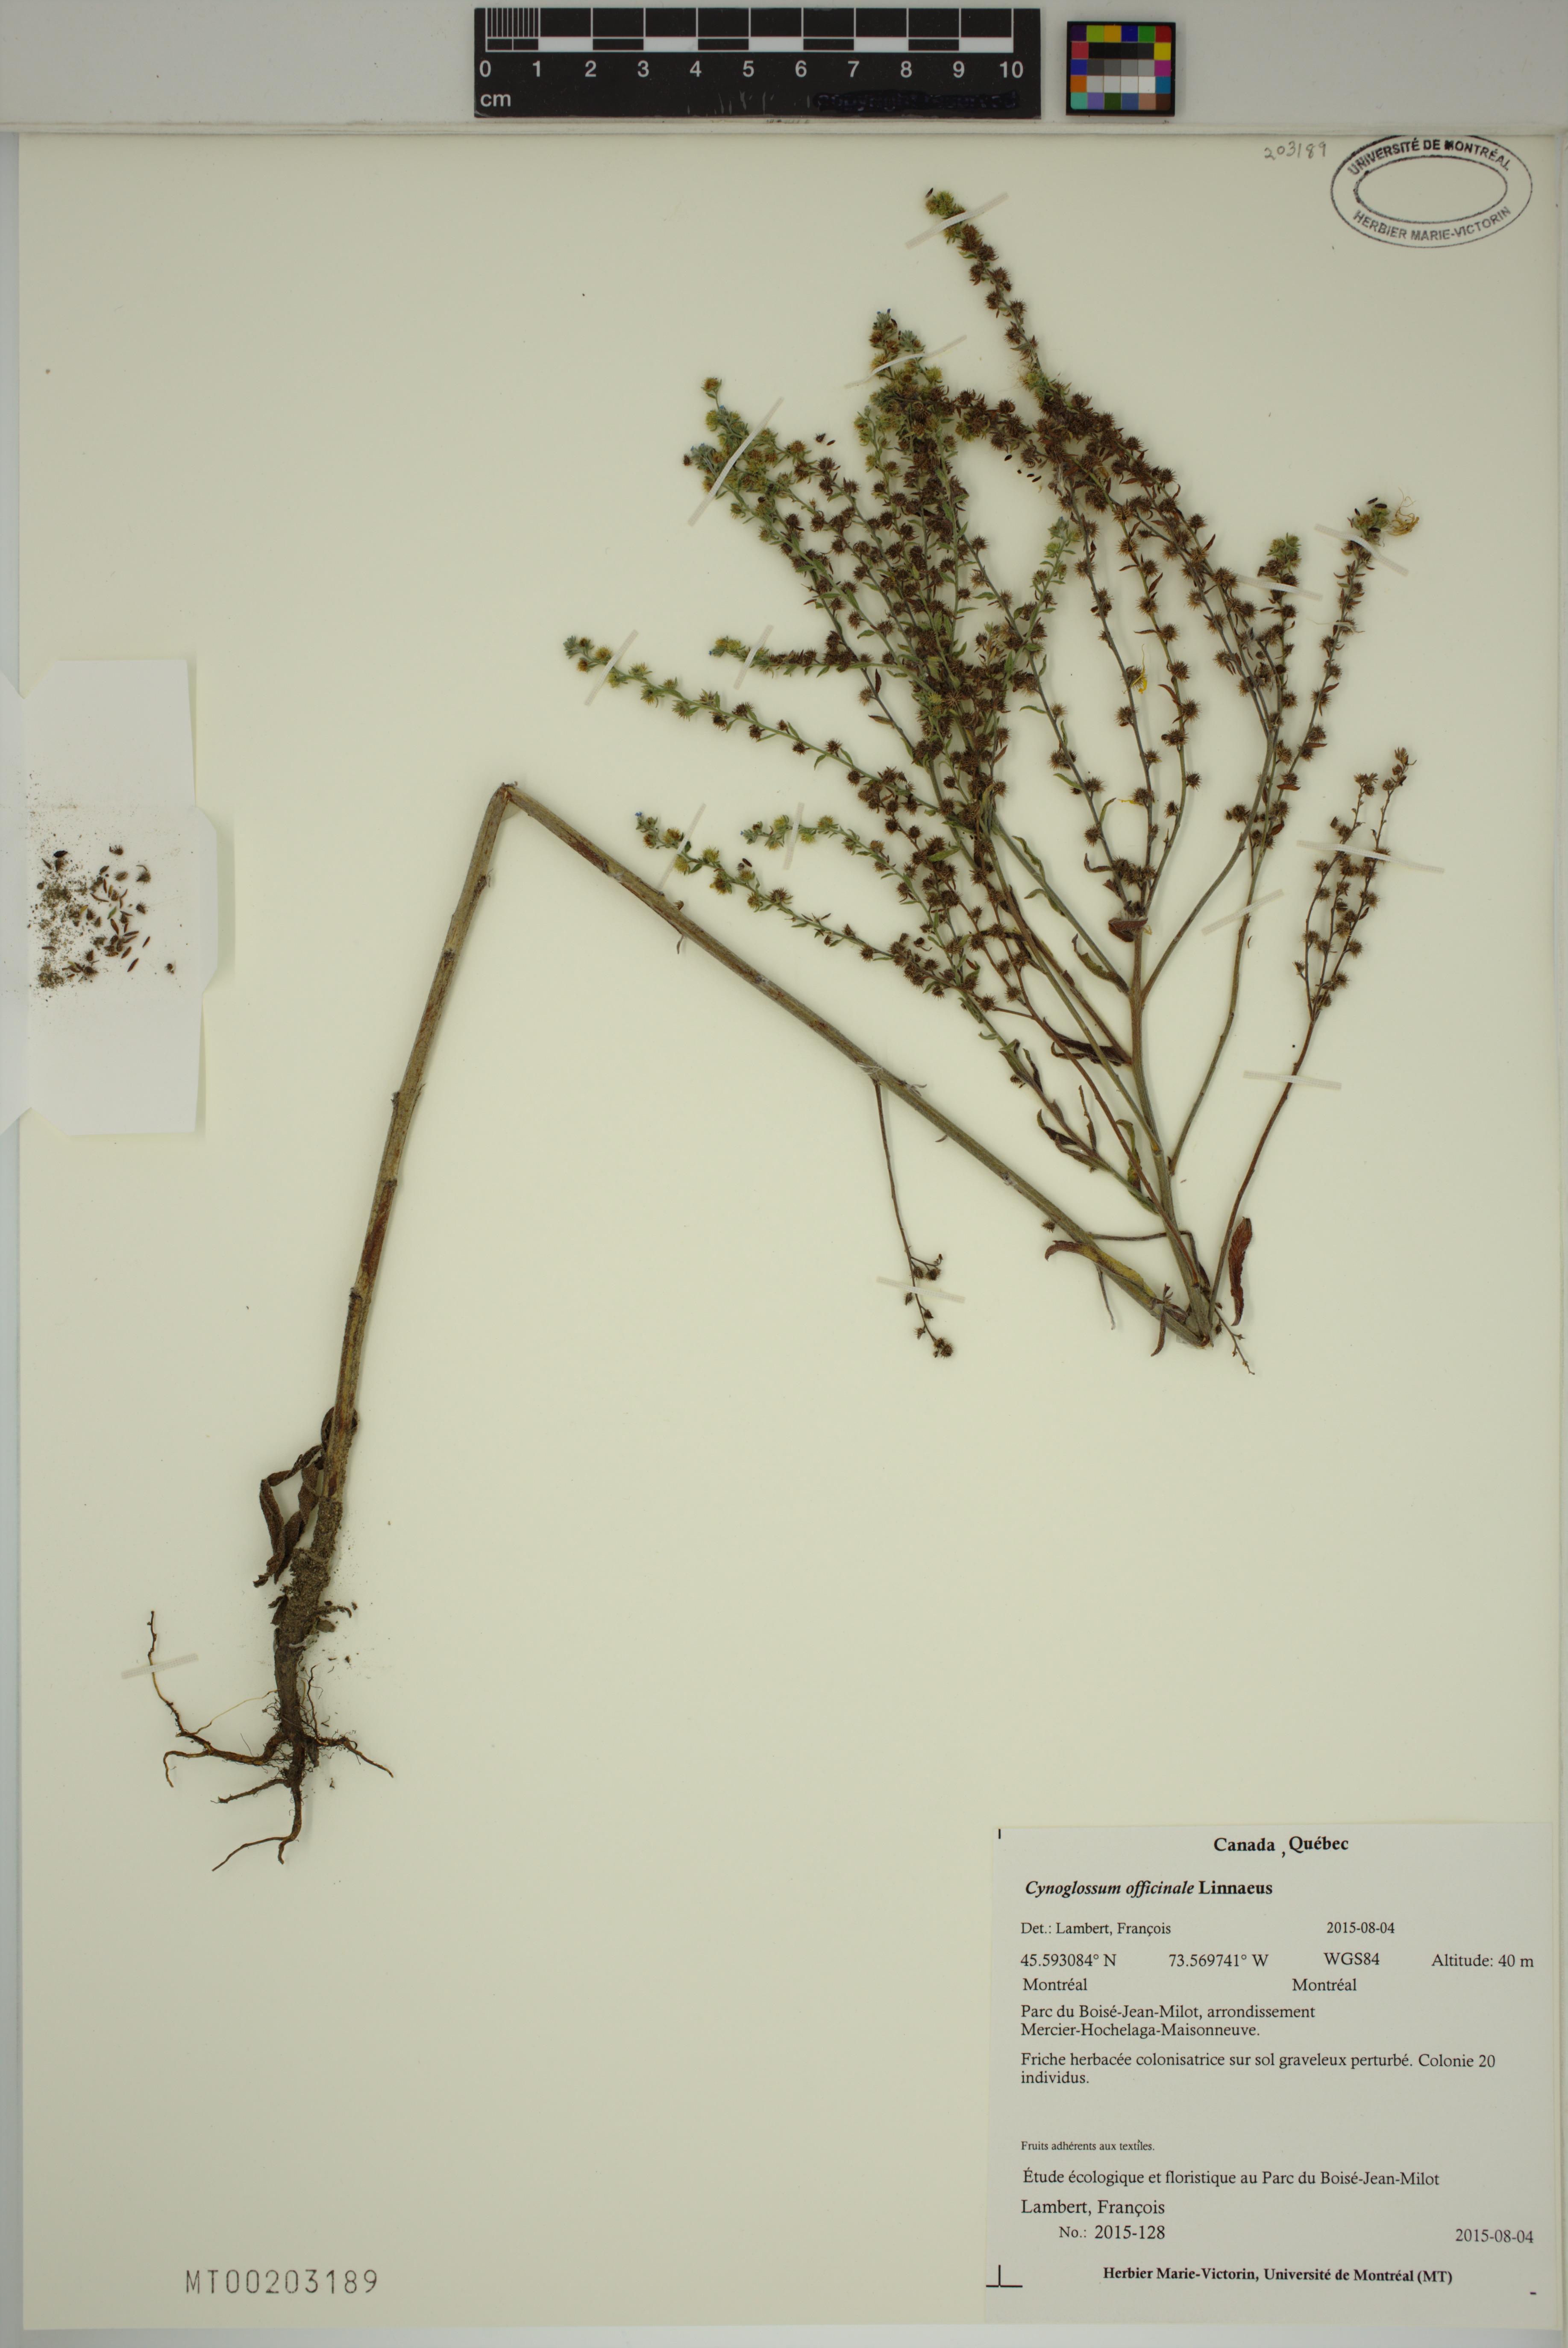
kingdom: Plantae
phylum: Tracheophyta
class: Magnoliopsida
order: Boraginales
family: Boraginaceae
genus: Cynoglossum
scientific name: Cynoglossum officinale
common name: Hound's-tongue
